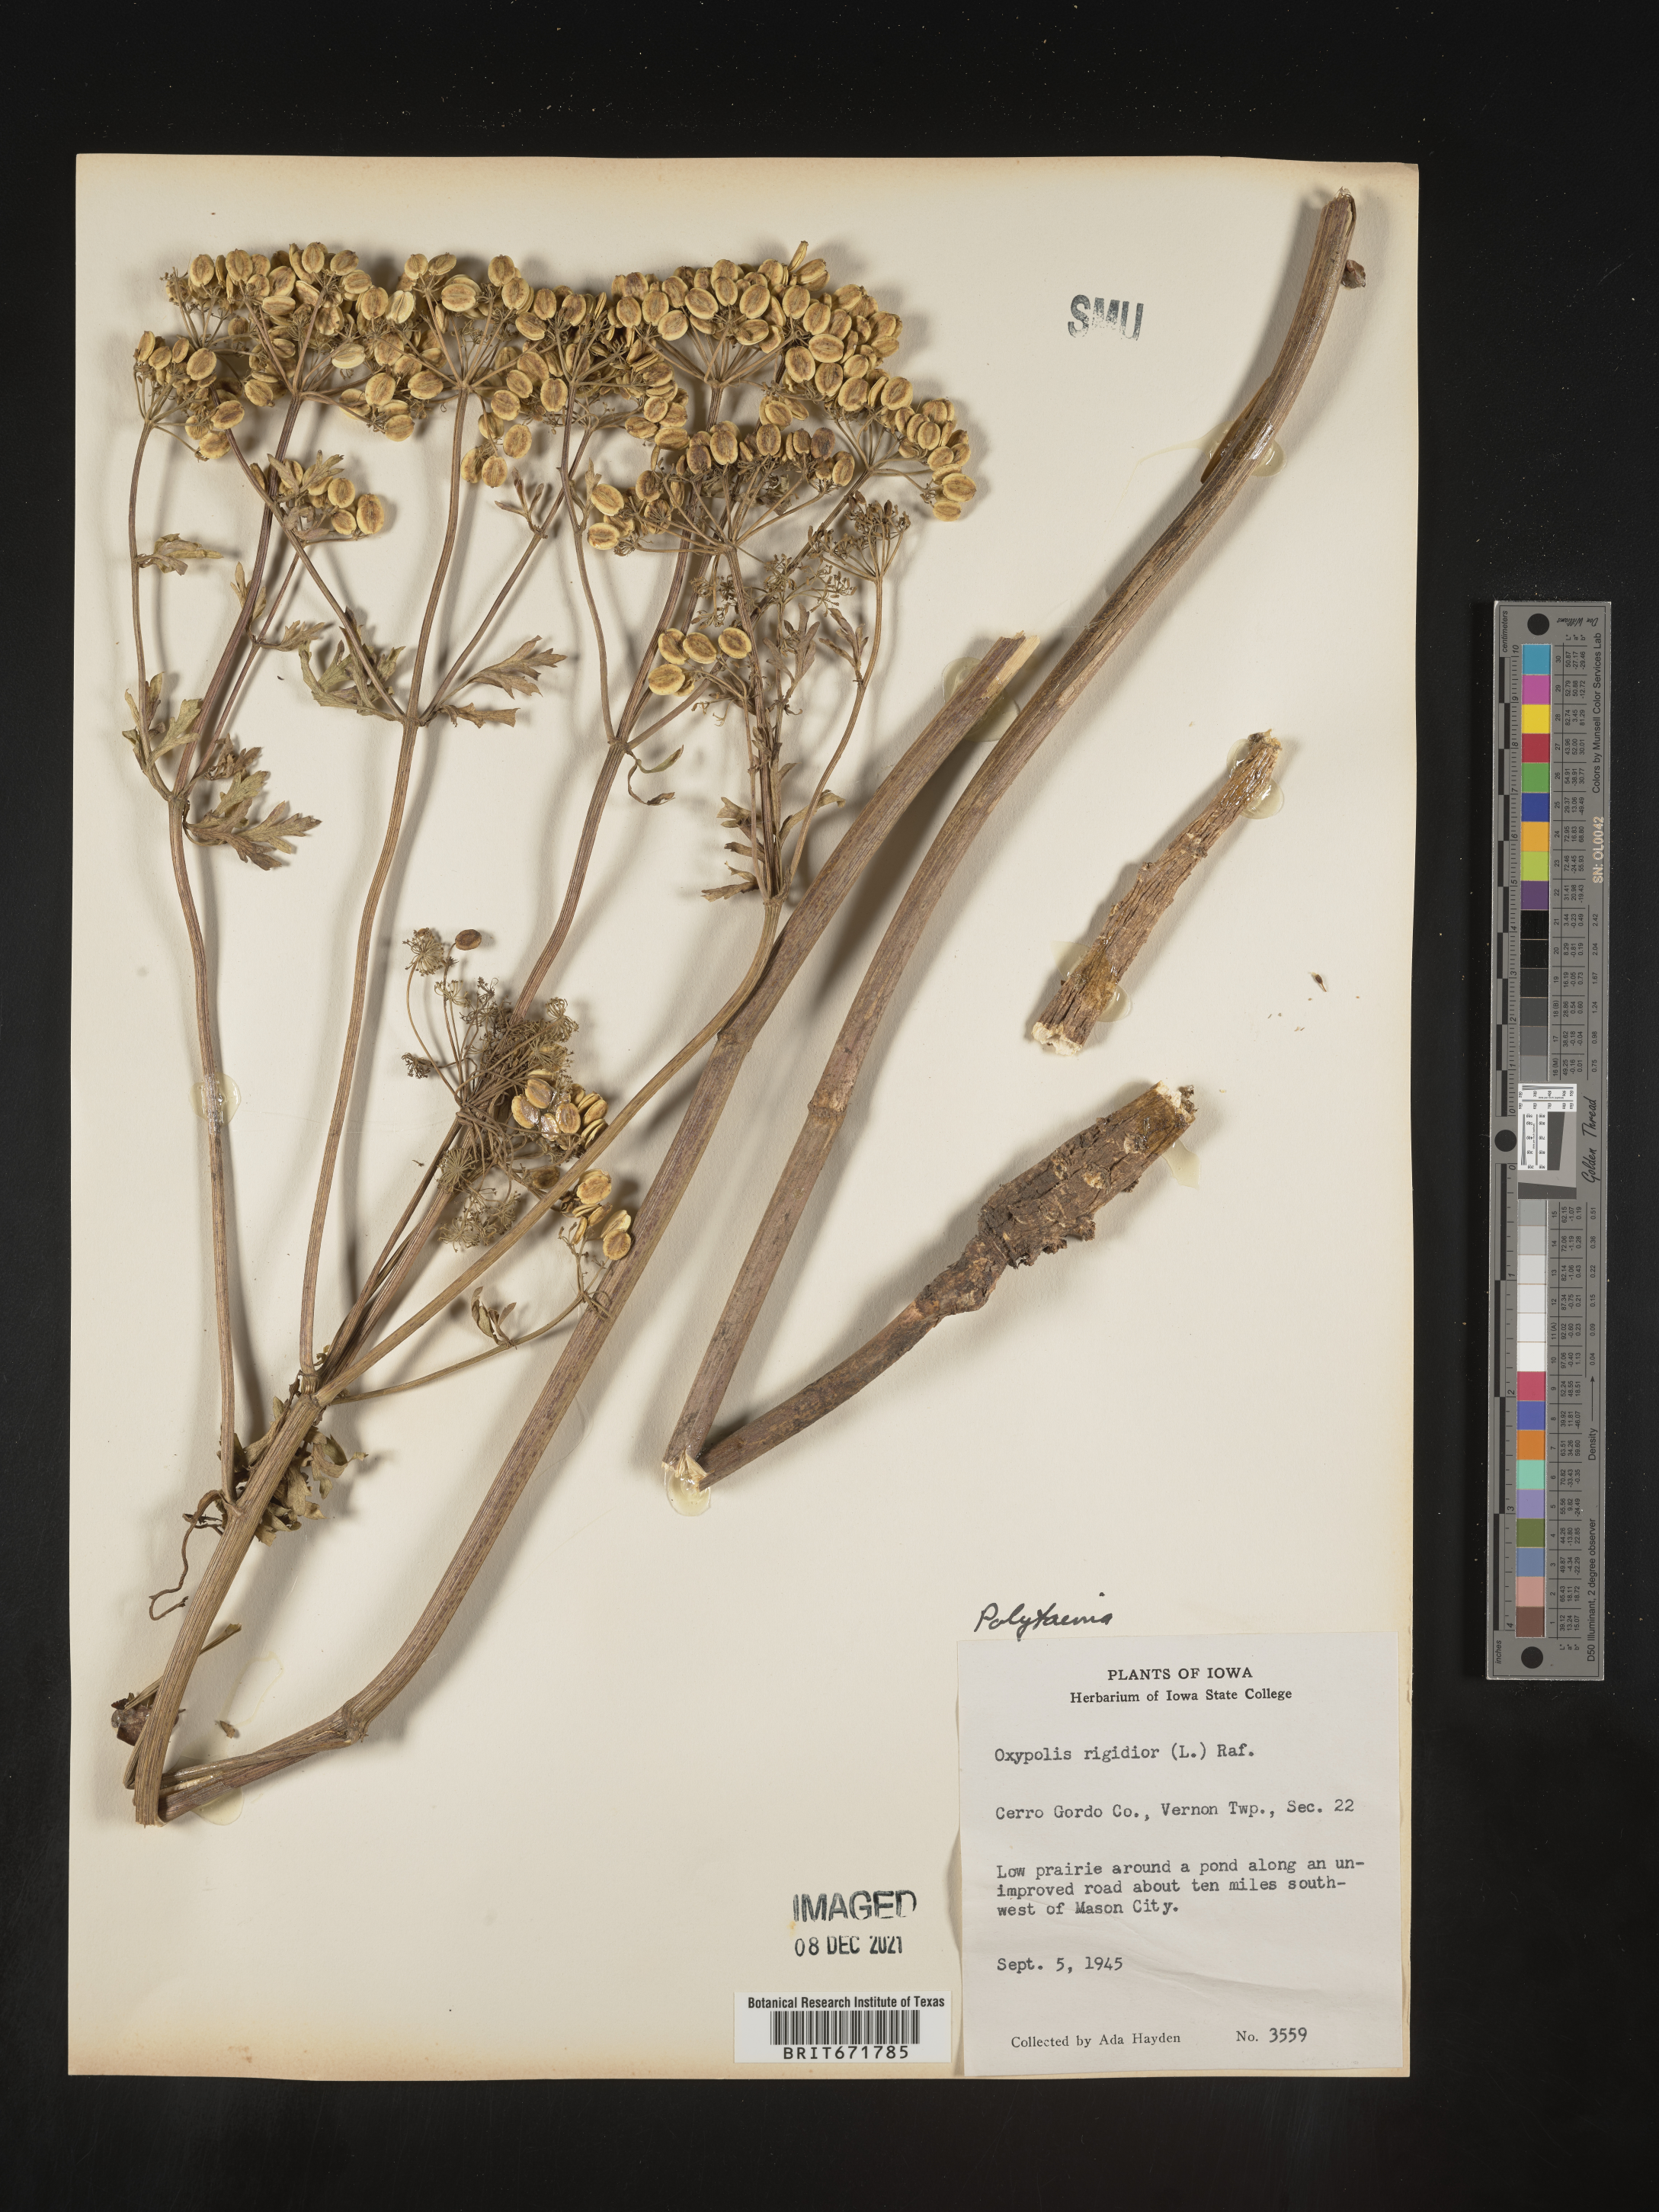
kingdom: Plantae
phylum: Tracheophyta
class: Magnoliopsida
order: Apiales
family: Apiaceae
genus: Polytaenia
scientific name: Polytaenia nuttallii
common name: Prairie-parsley
